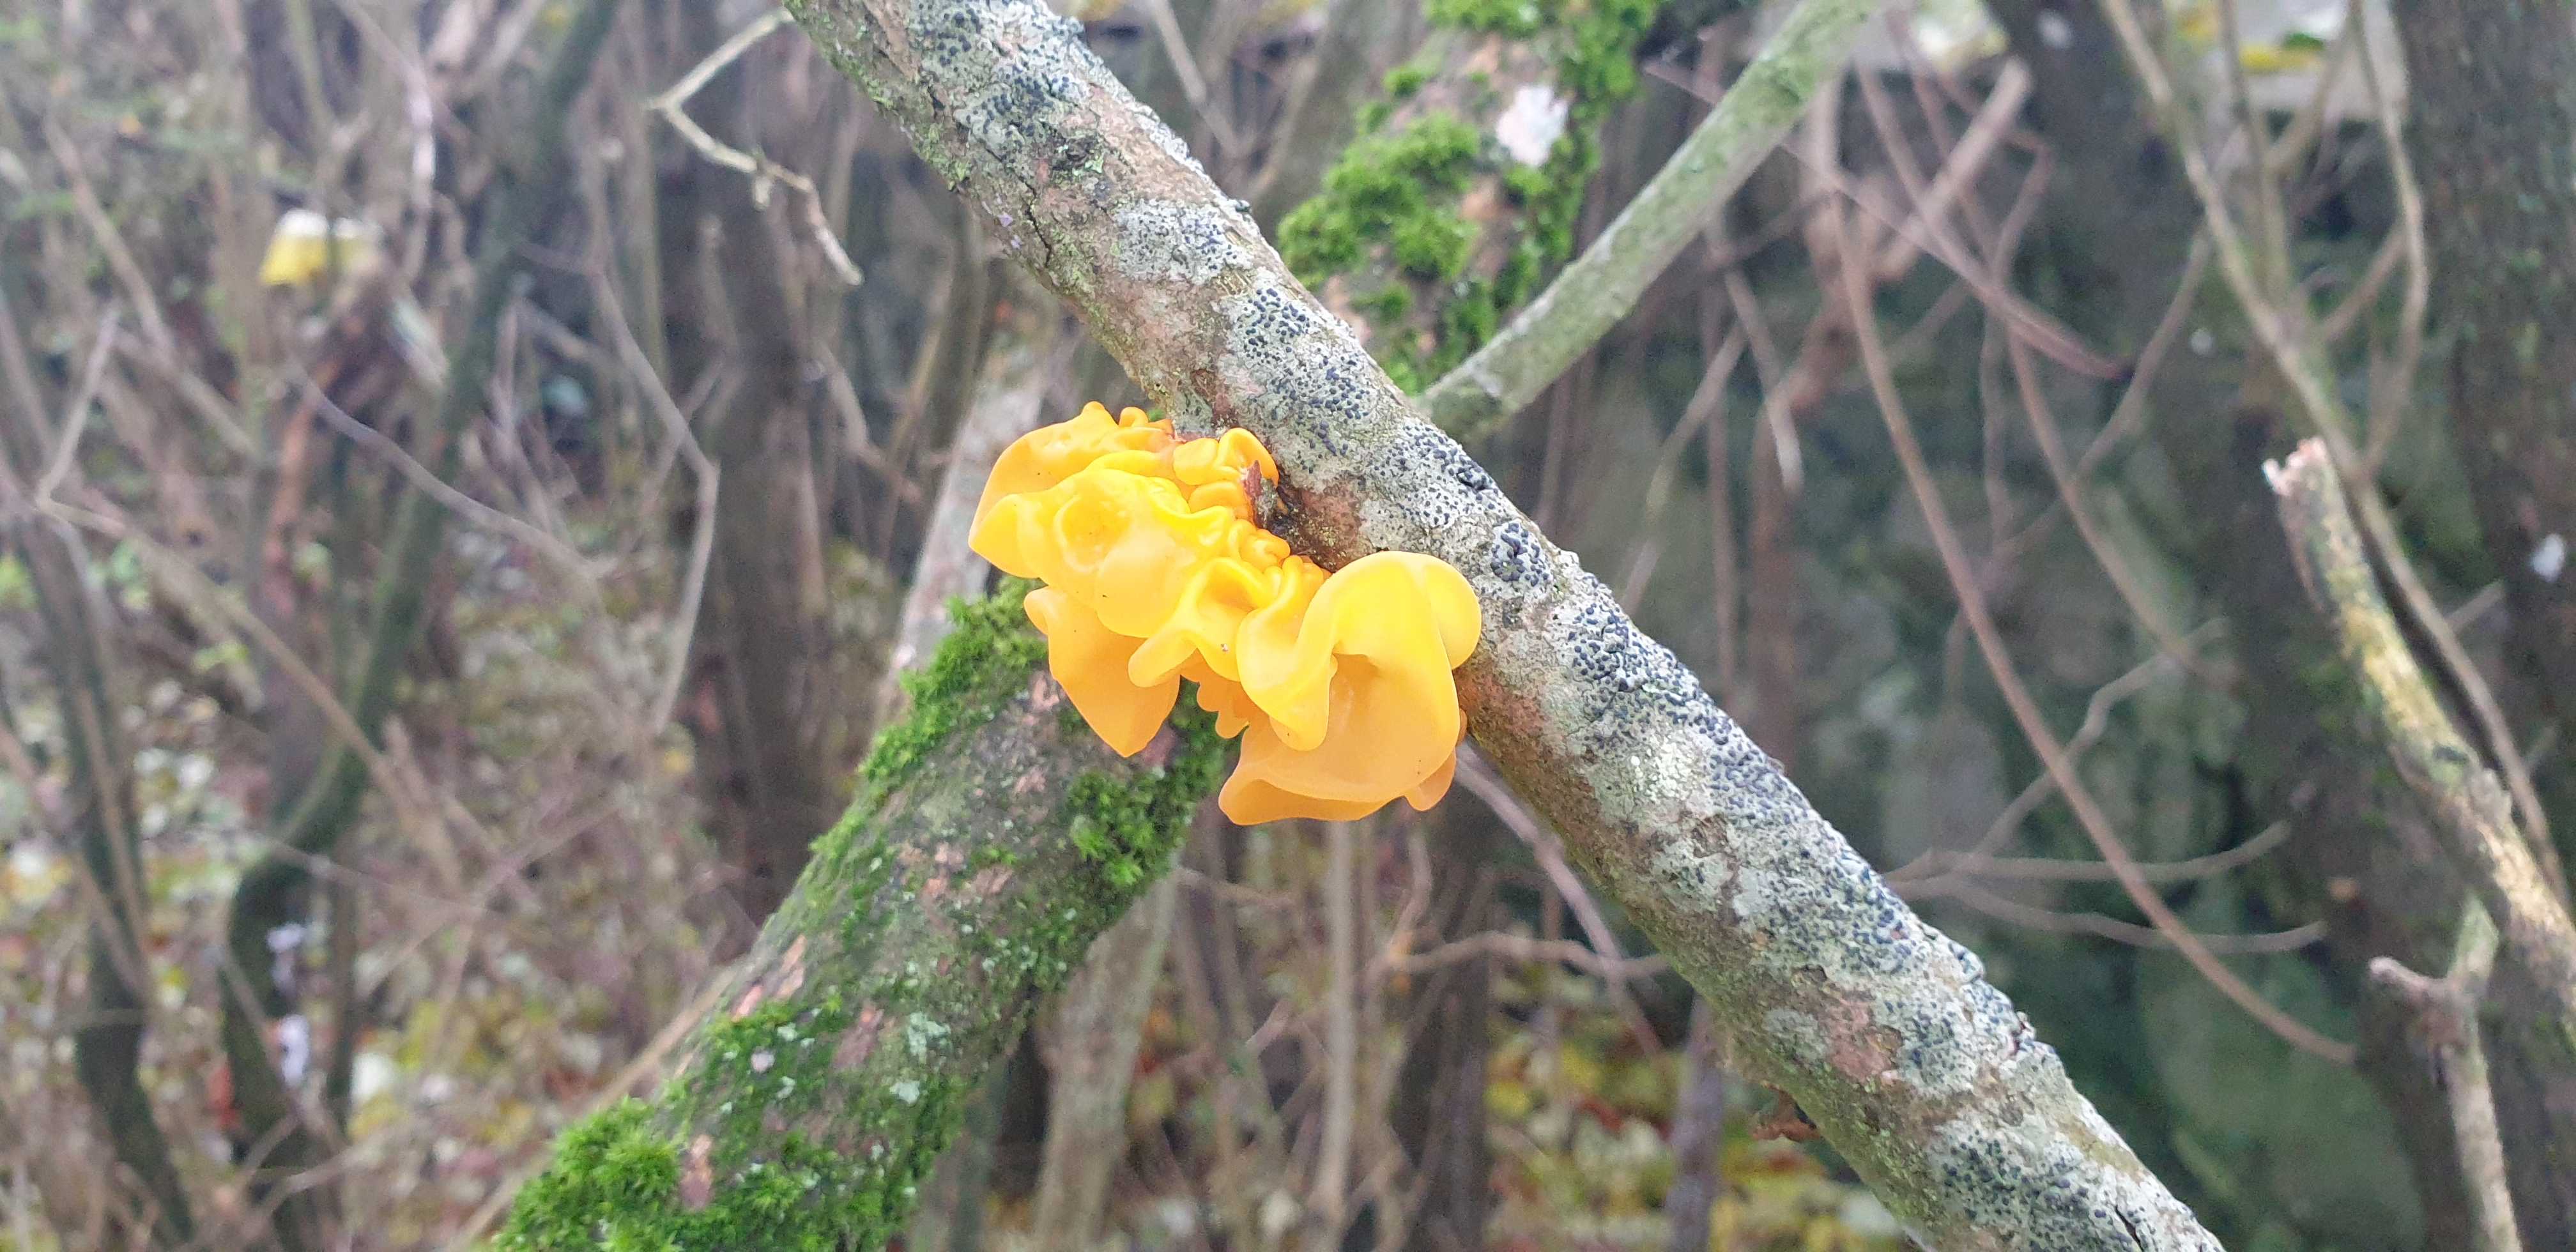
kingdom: Fungi
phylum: Basidiomycota
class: Tremellomycetes
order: Tremellales
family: Tremellaceae
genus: Tremella
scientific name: Tremella mesenterica
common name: gul bævresvamp
